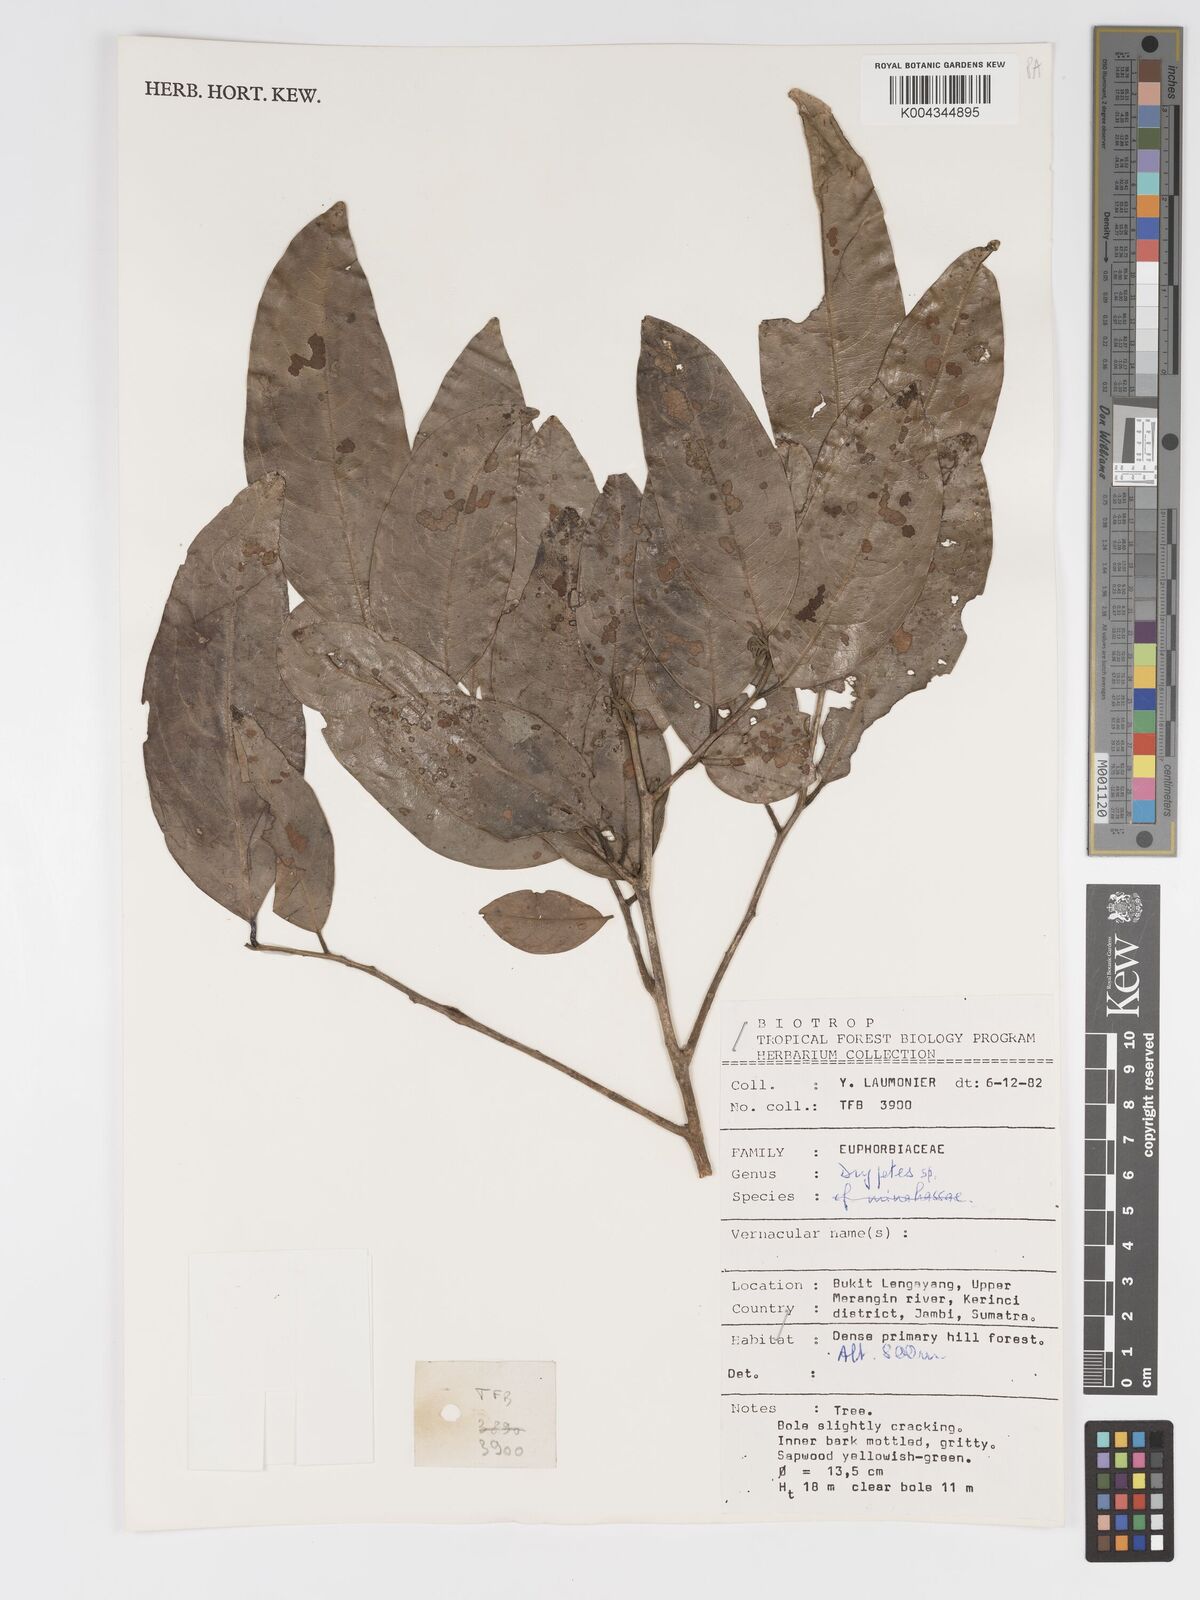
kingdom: Plantae
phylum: Tracheophyta
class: Magnoliopsida
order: Malpighiales
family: Putranjivaceae
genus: Drypetes
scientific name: Drypetes
